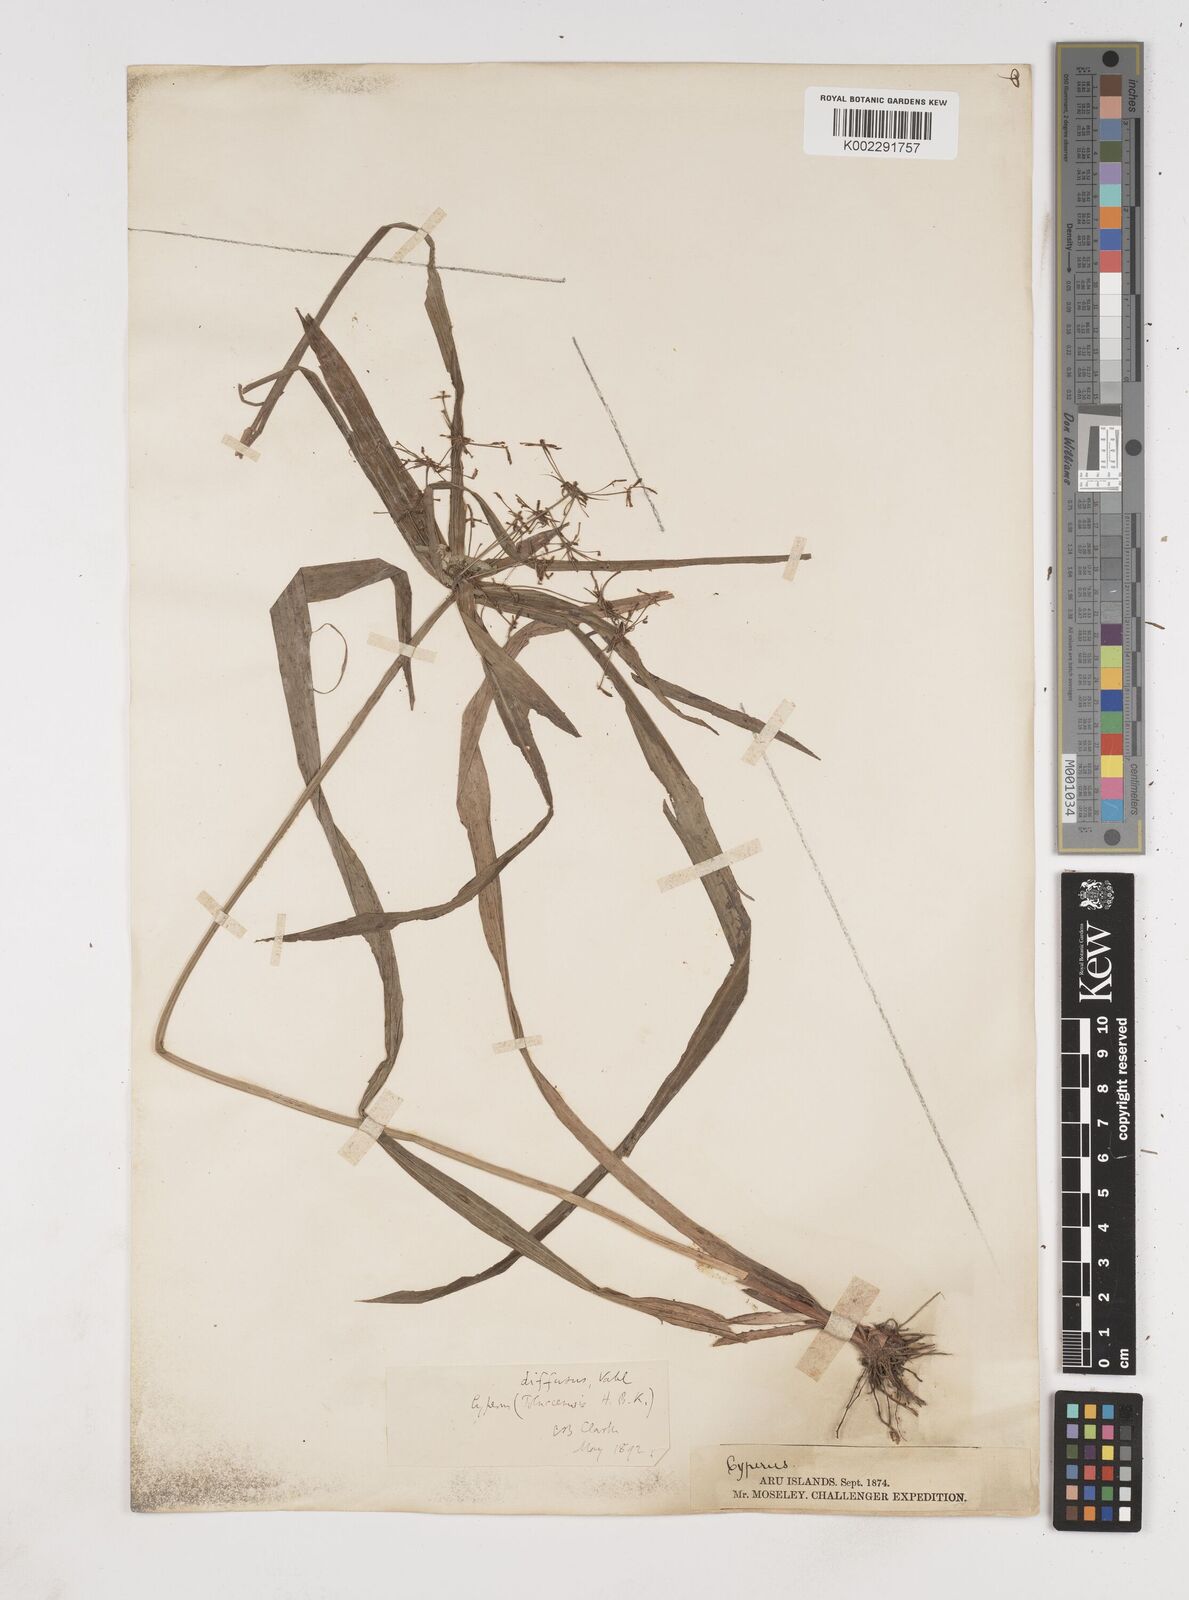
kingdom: Plantae
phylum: Tracheophyta
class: Liliopsida
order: Poales
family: Cyperaceae
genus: Cyperus
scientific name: Cyperus diffusus
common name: Dwarf umbrella grass
